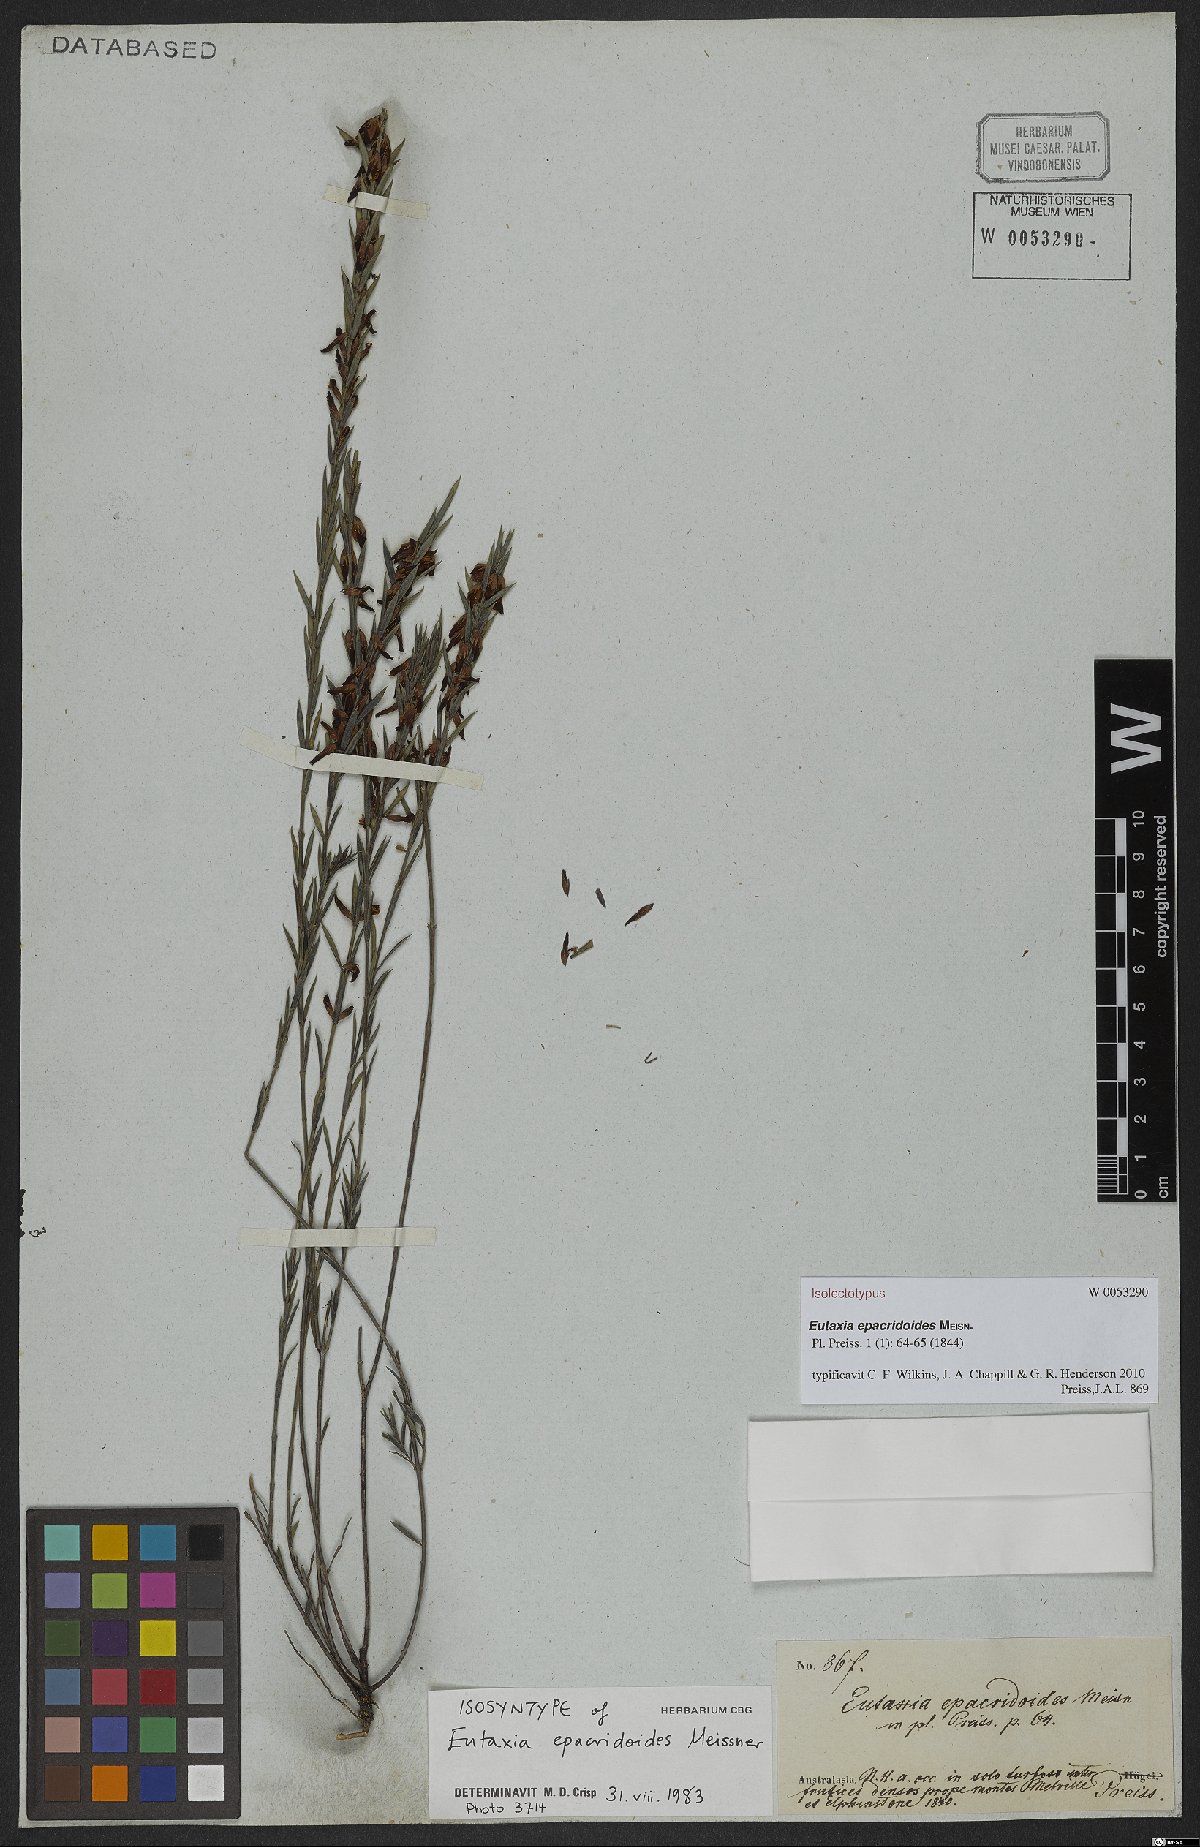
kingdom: Plantae
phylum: Tracheophyta
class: Magnoliopsida
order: Fabales
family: Fabaceae
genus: Eutaxia
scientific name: Eutaxia epacridoides
